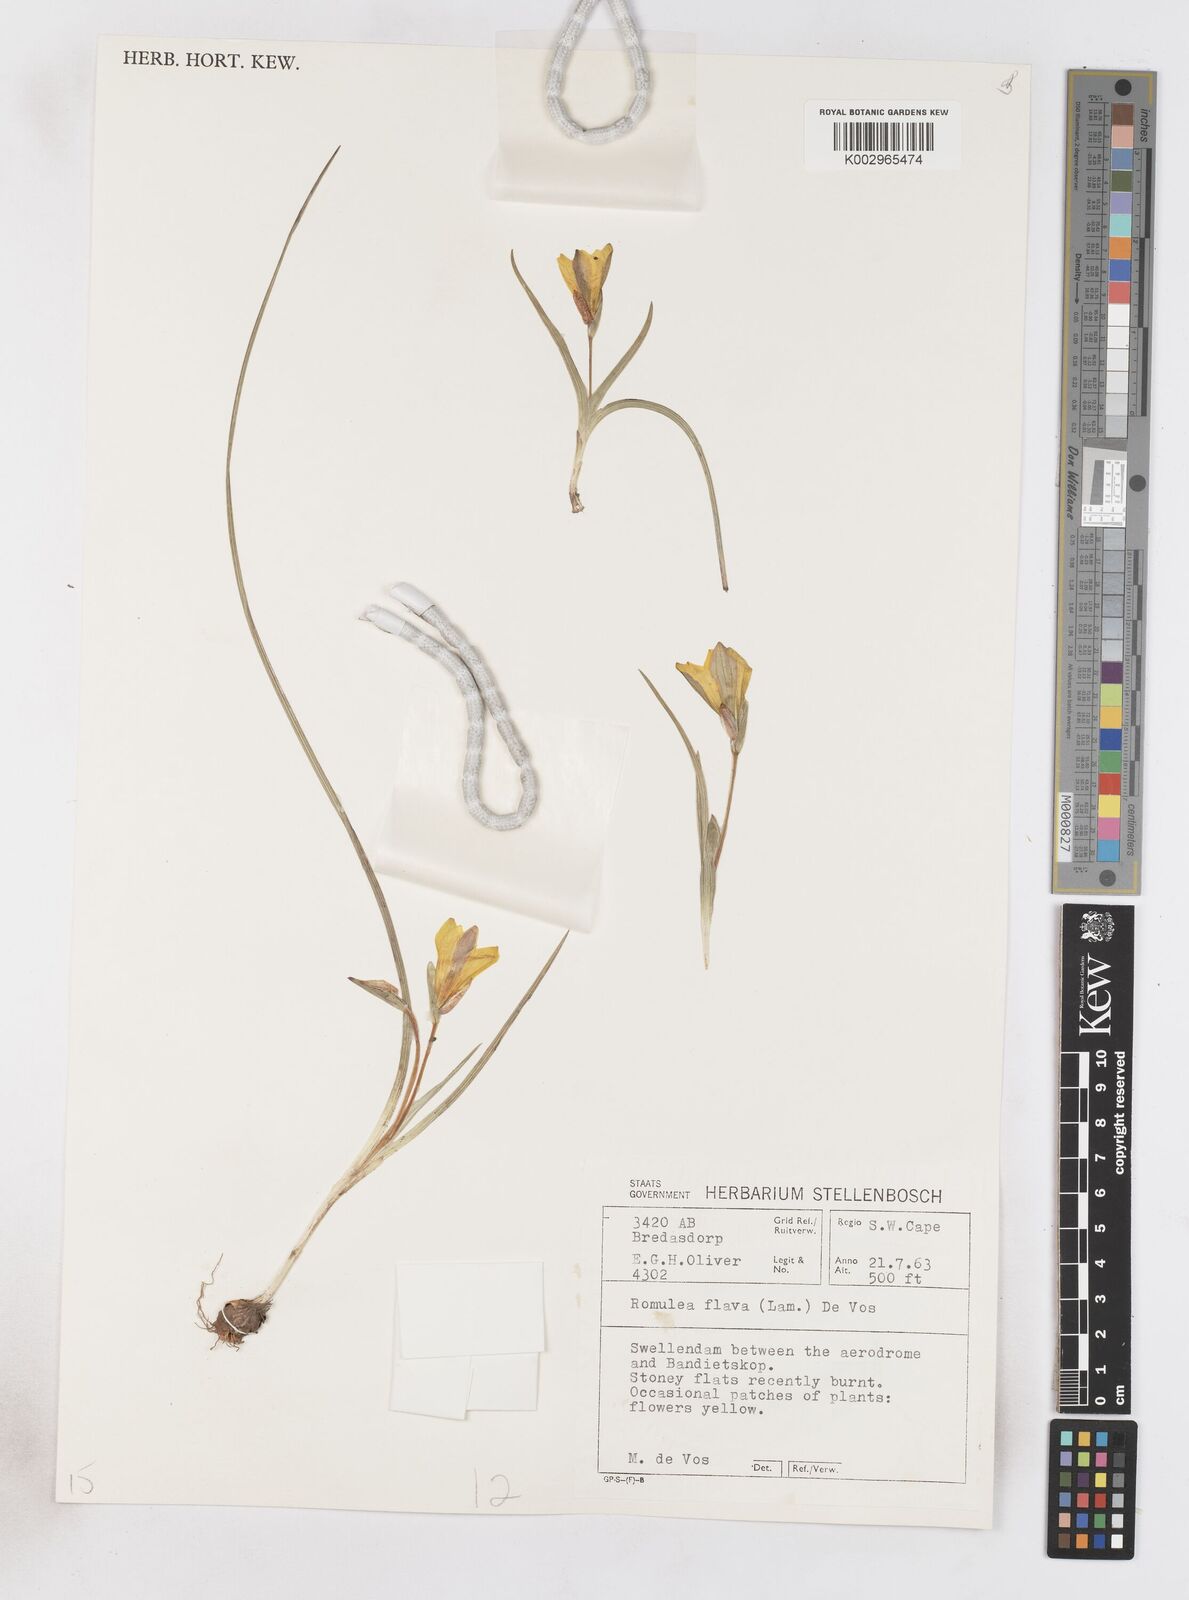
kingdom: Plantae
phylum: Tracheophyta
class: Liliopsida
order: Asparagales
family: Iridaceae
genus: Romulea
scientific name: Romulea flava
